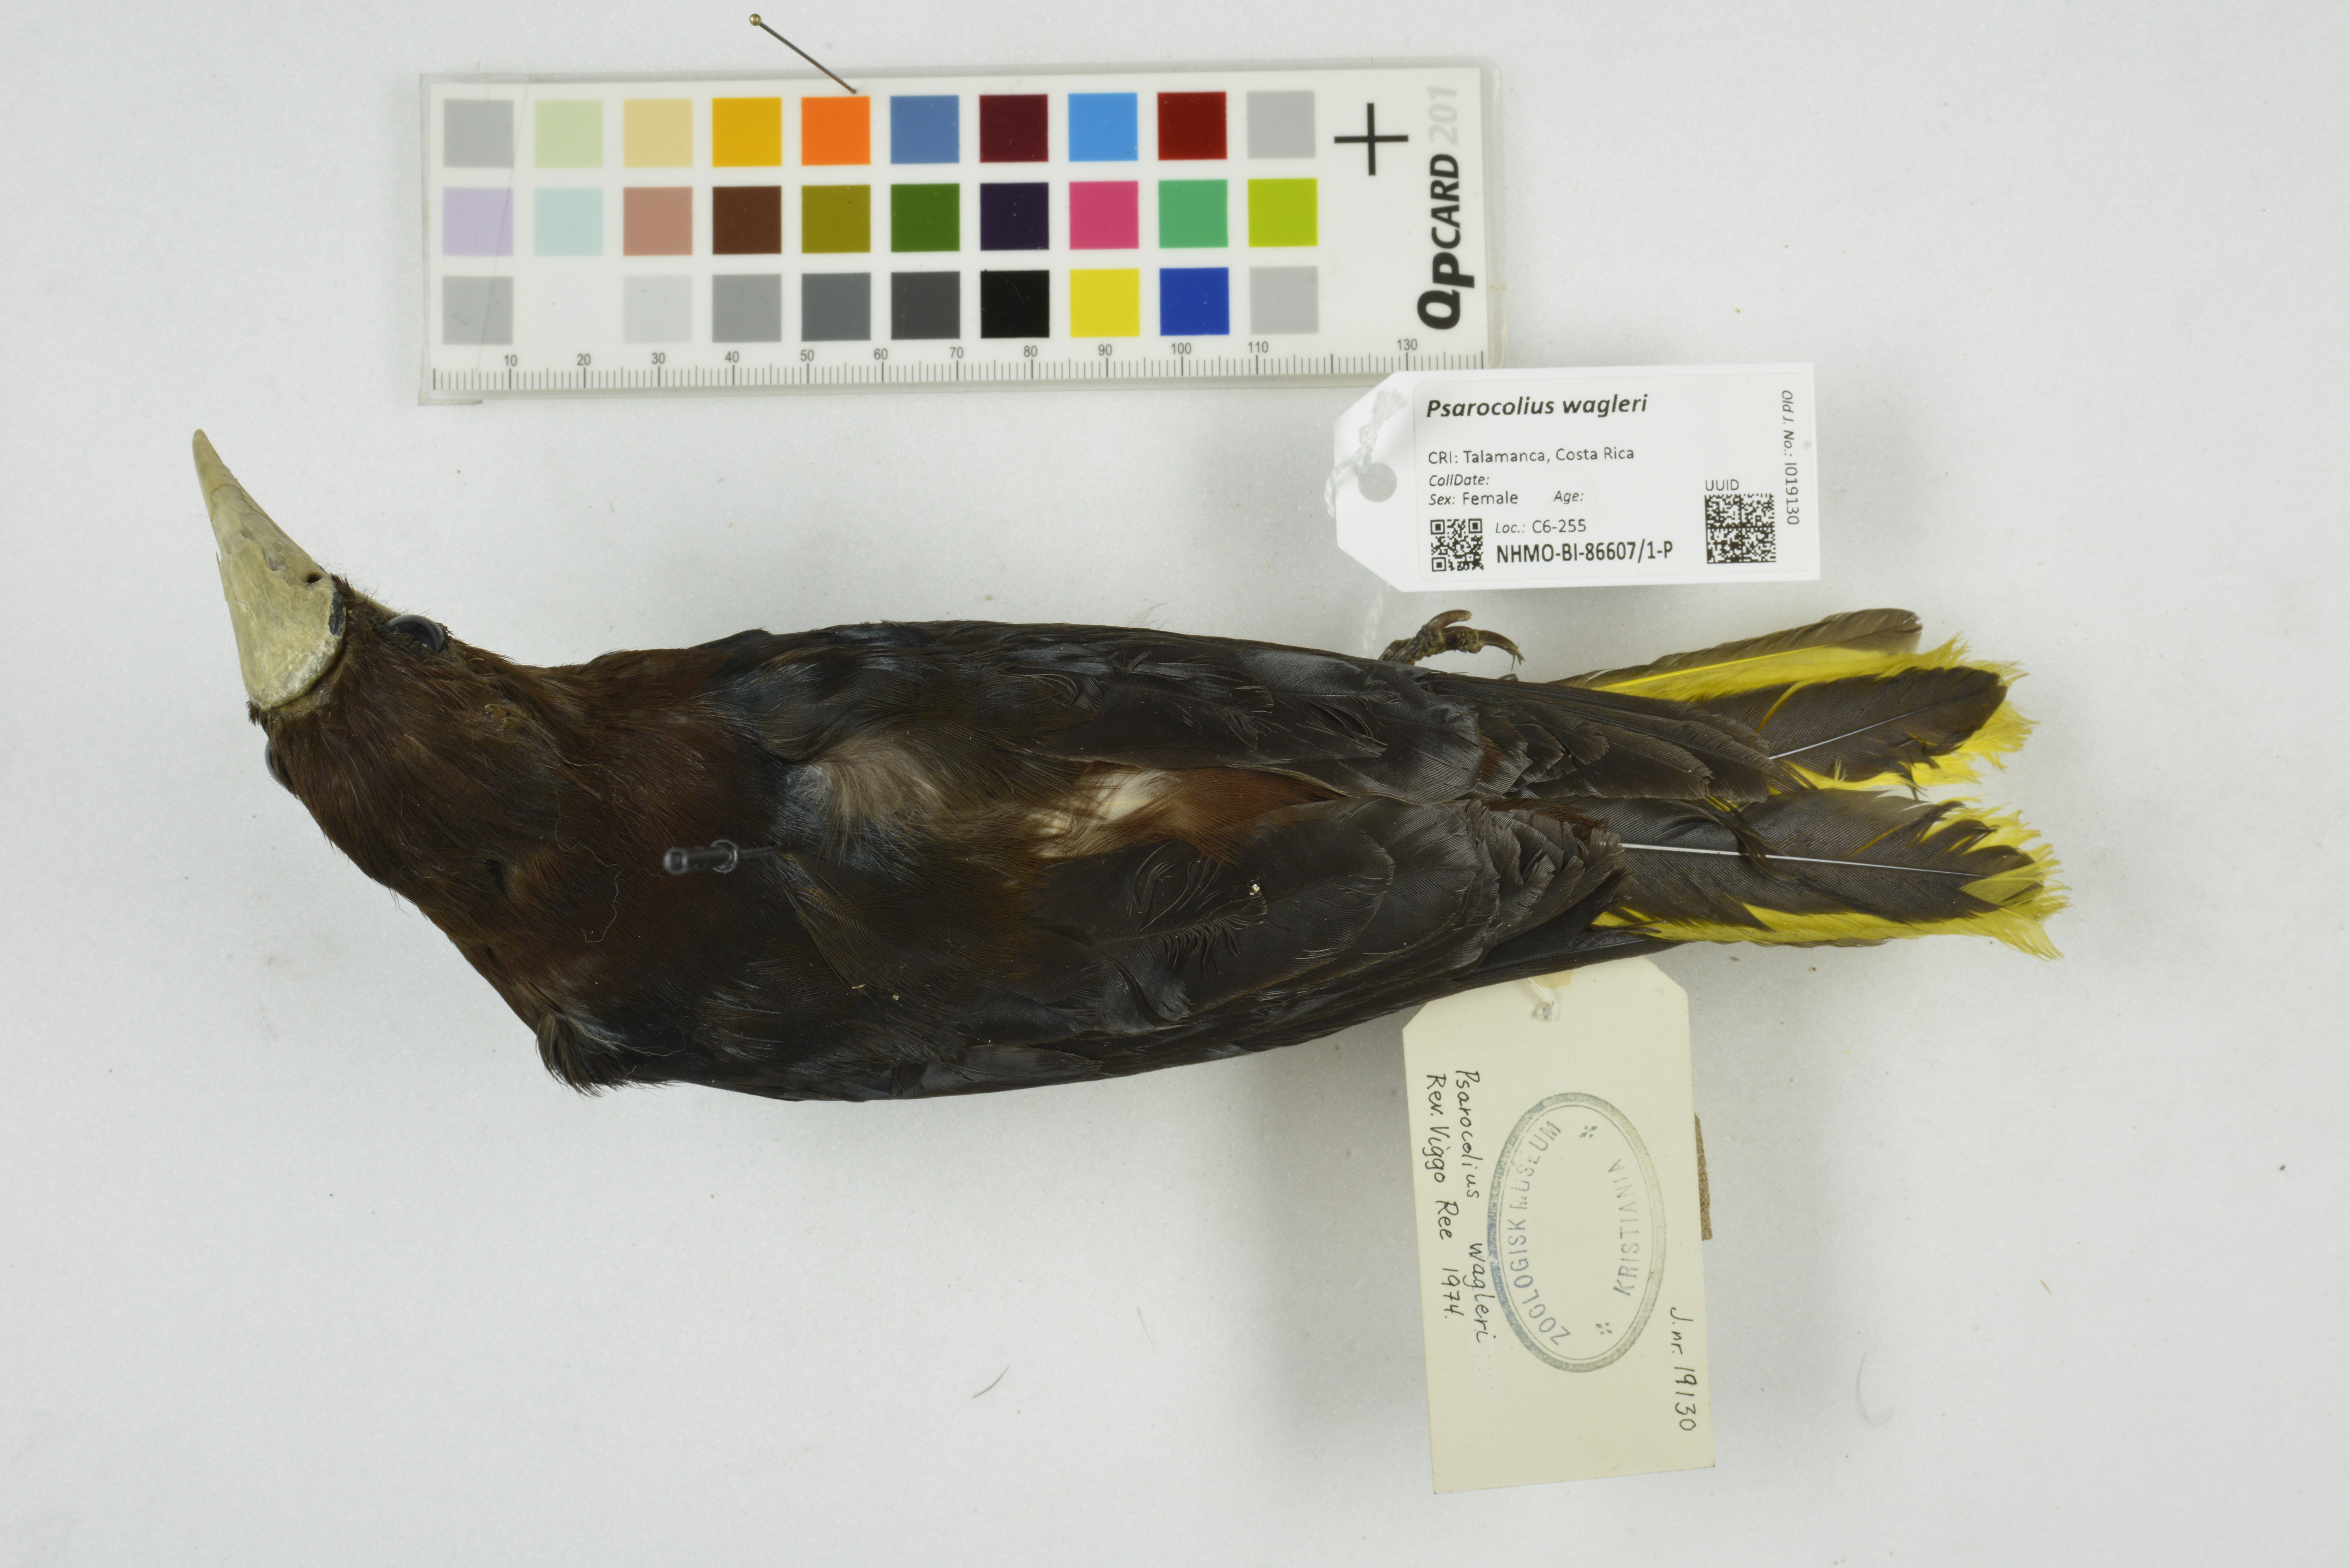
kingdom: Animalia
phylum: Chordata
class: Aves
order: Passeriformes
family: Icteridae
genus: Psarocolius
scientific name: Psarocolius wagleri
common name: Chestnut-headed oropendola
